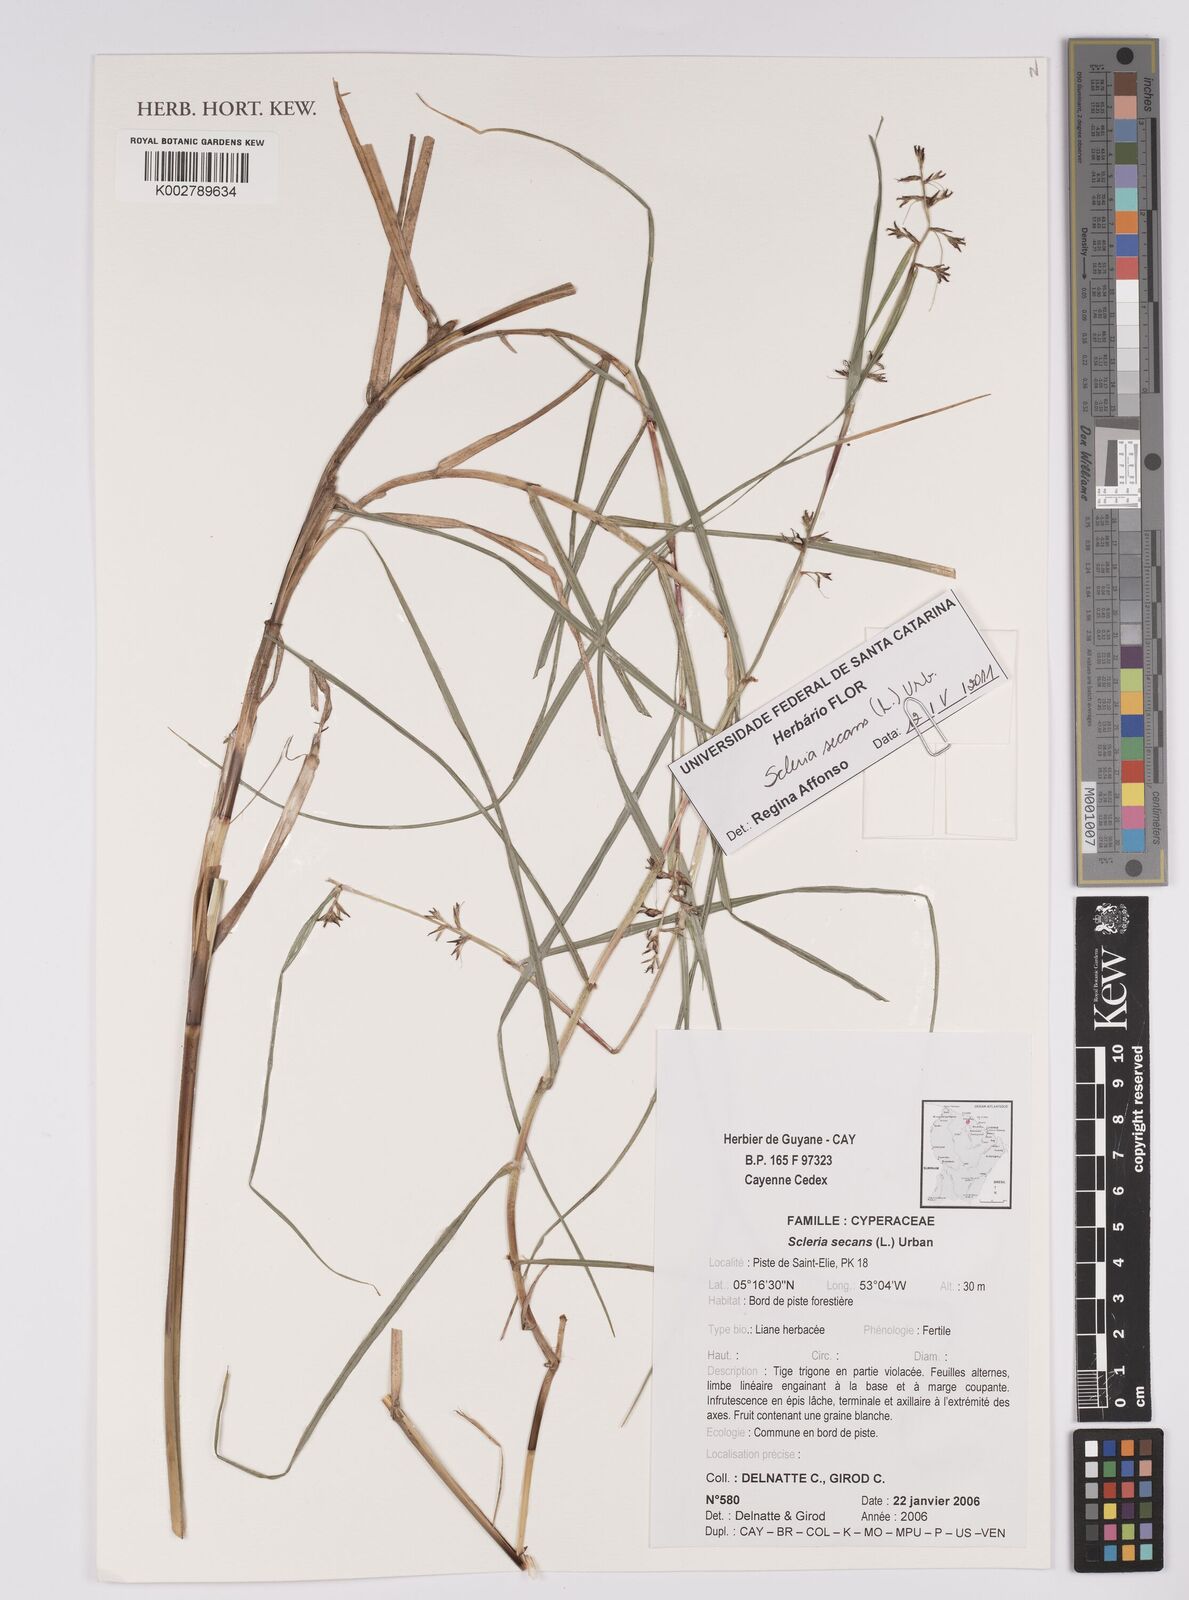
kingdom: Plantae
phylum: Tracheophyta
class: Liliopsida
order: Poales
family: Cyperaceae
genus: Scleria
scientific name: Scleria secans
